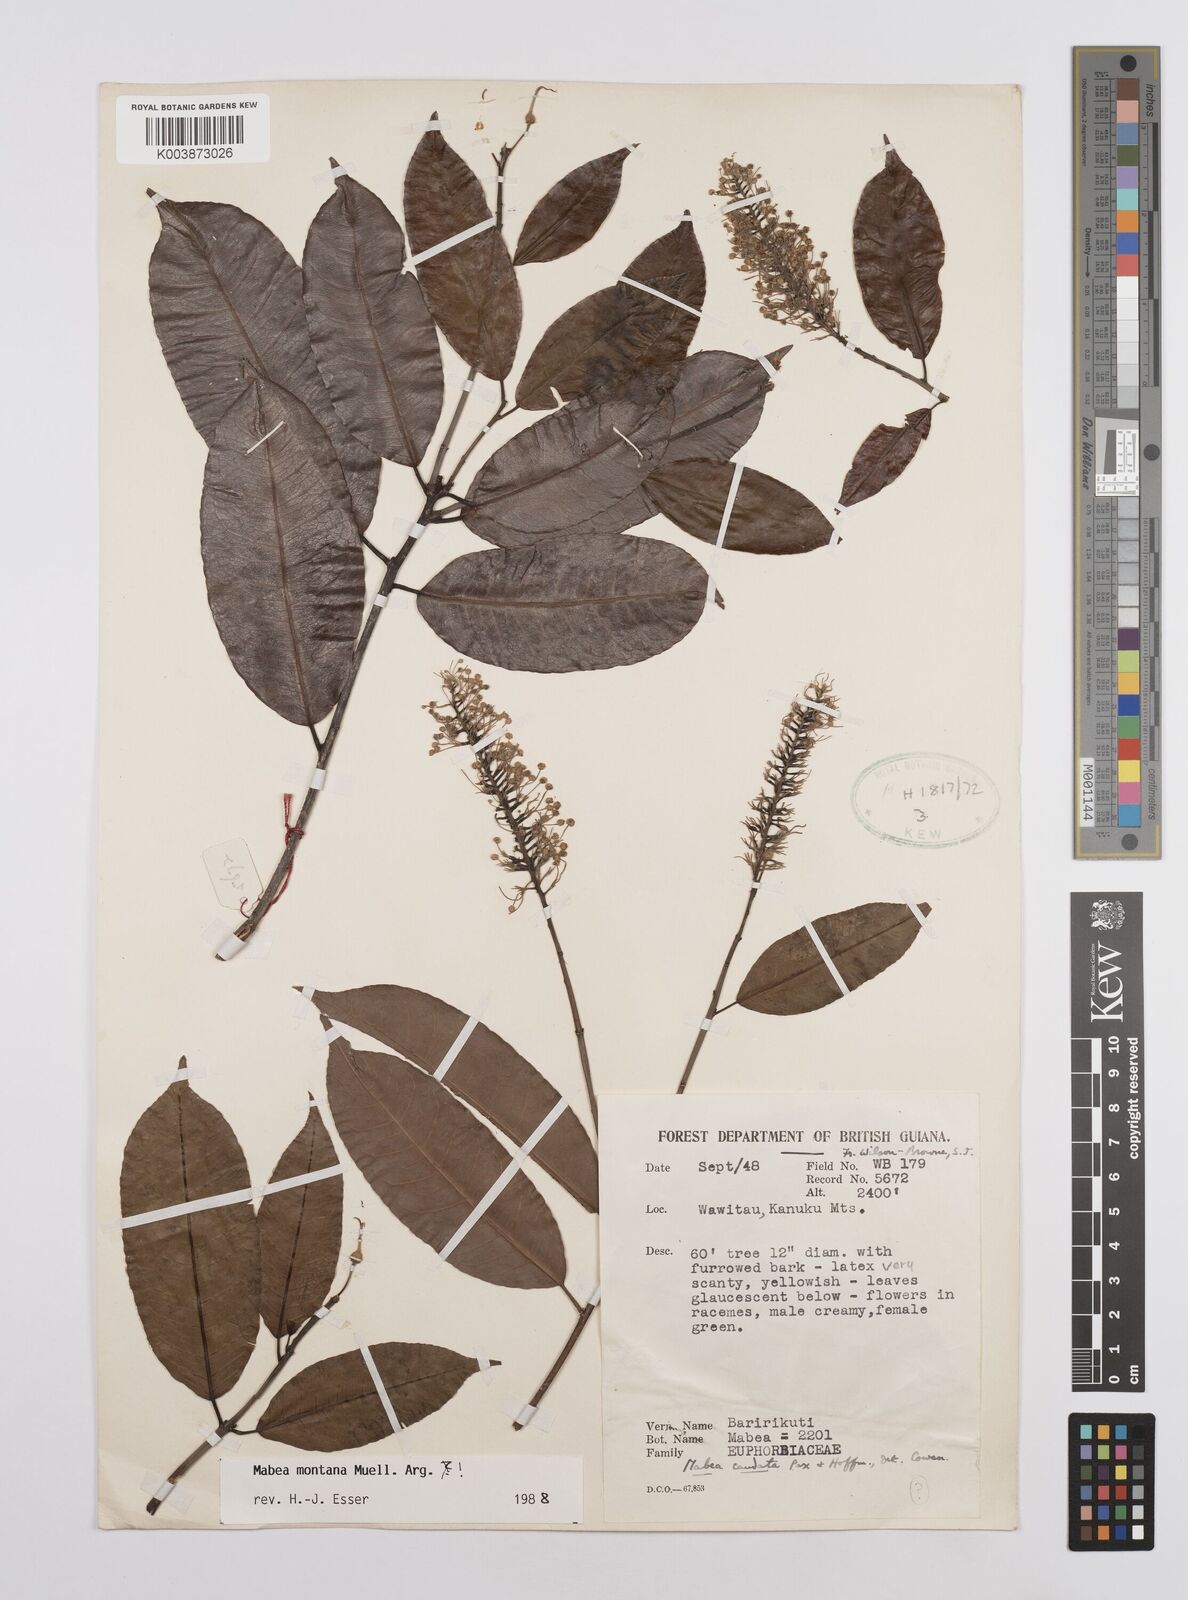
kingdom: Plantae
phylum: Tracheophyta
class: Magnoliopsida
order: Malpighiales
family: Euphorbiaceae
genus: Mabea
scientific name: Mabea montana
